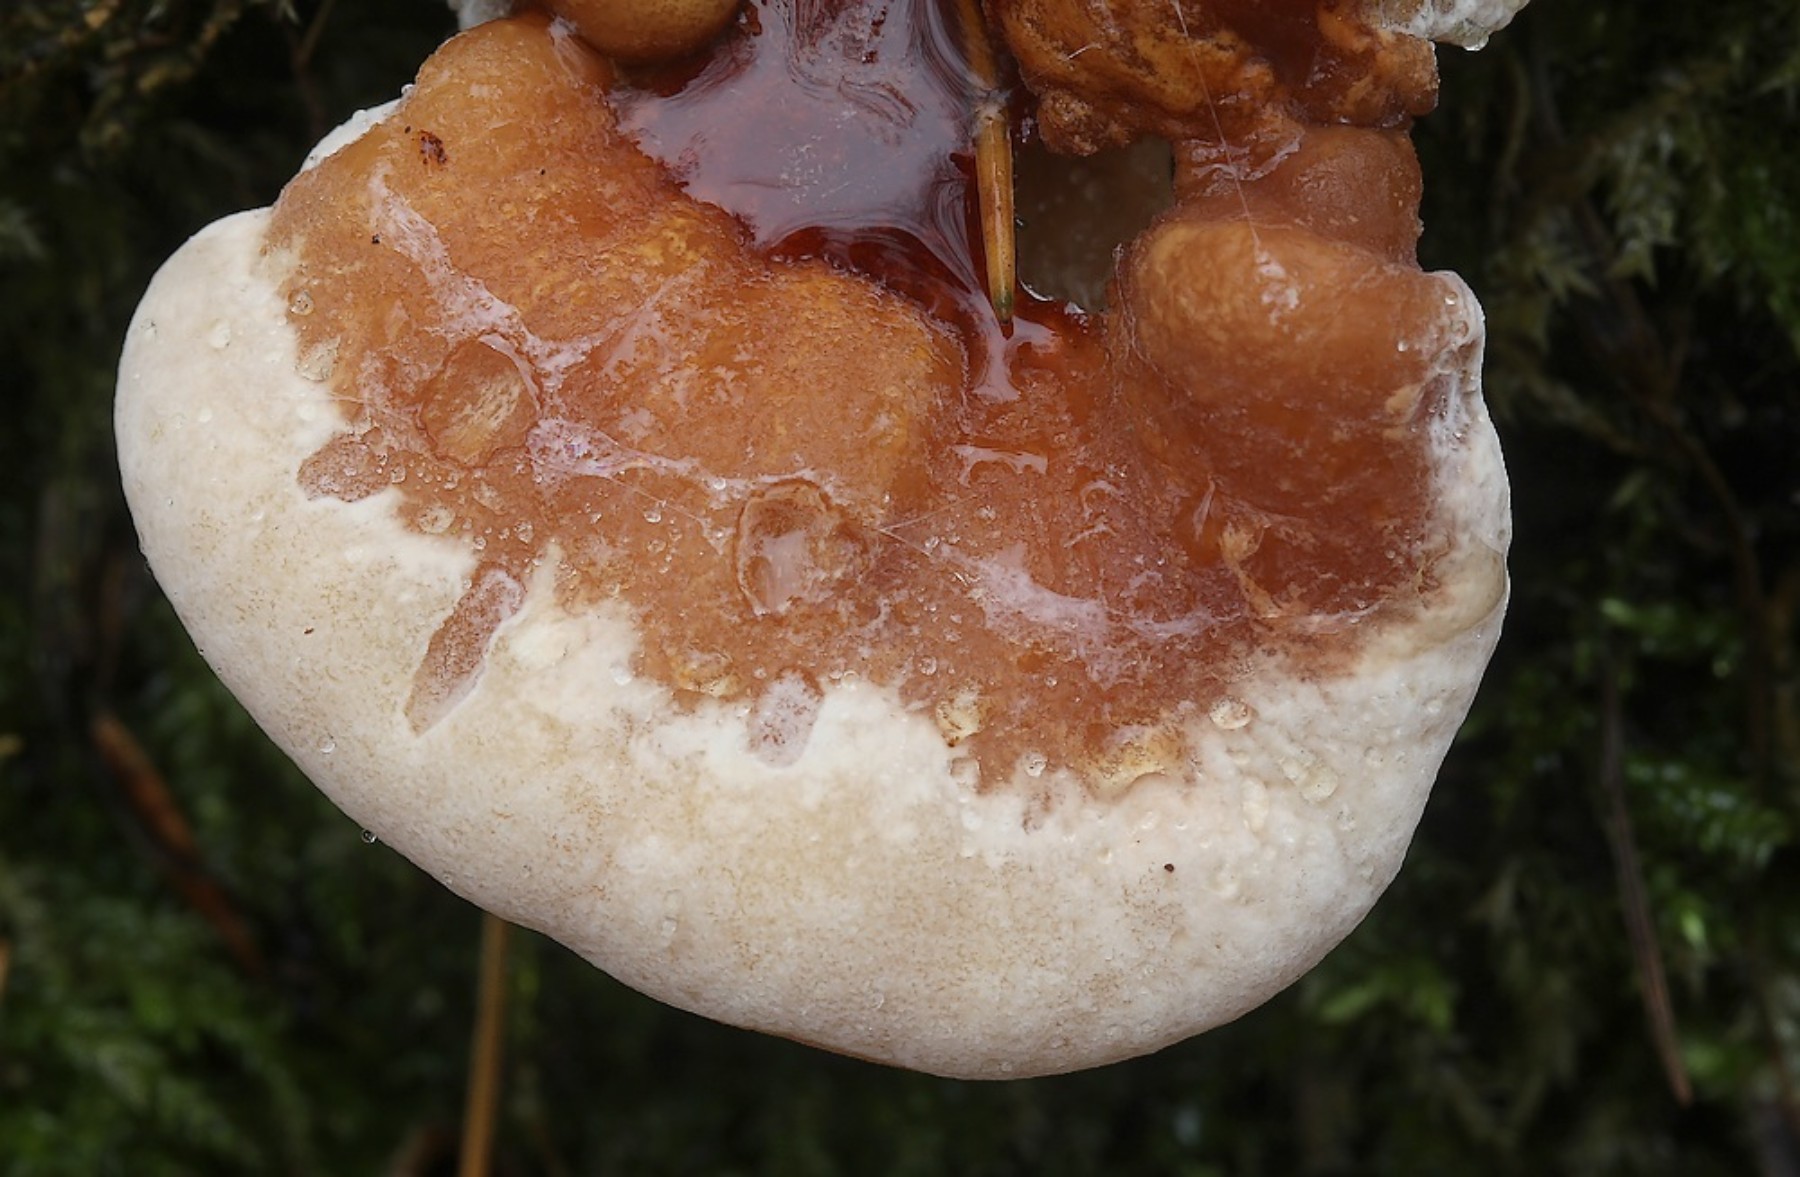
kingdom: Fungi
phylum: Basidiomycota
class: Agaricomycetes
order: Polyporales
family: Ischnodermataceae
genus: Ischnoderma
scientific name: Ischnoderma resinosum
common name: løv-tjæreporesvamp
